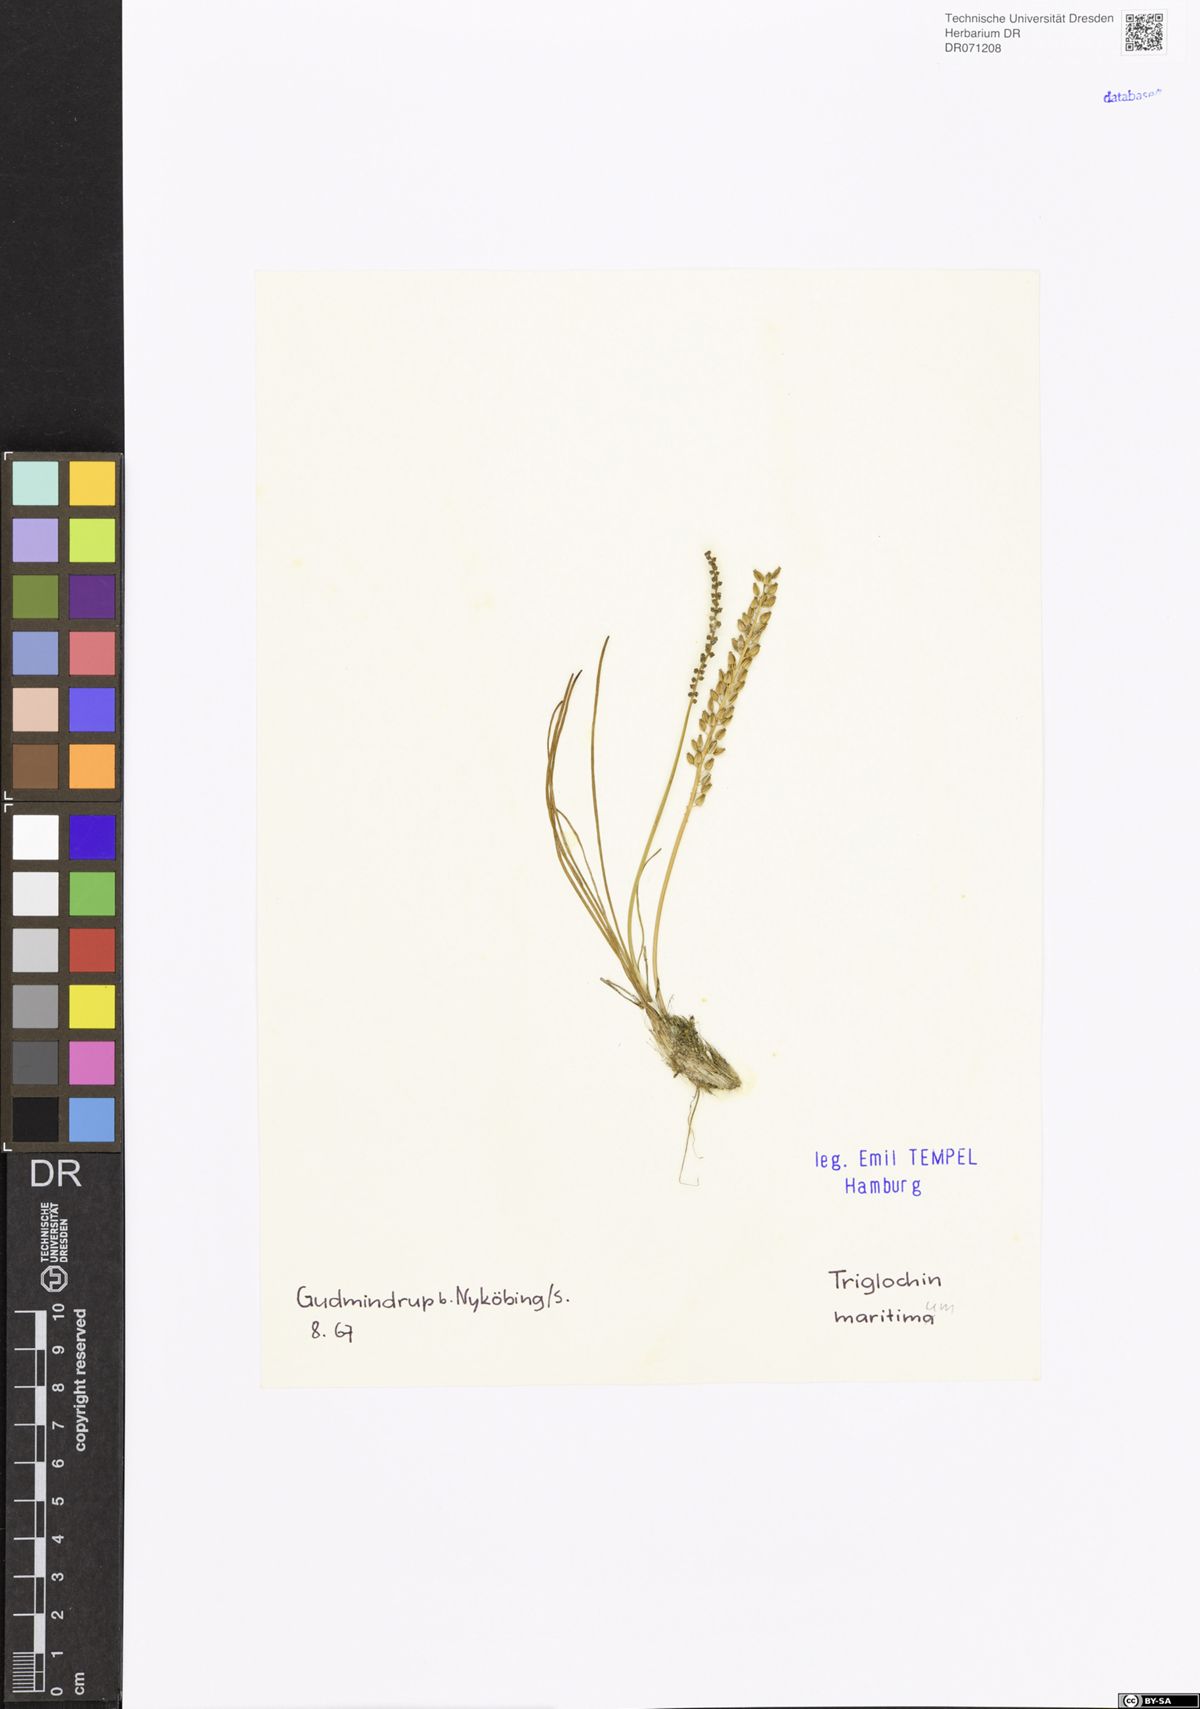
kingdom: Plantae
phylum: Tracheophyta
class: Liliopsida
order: Alismatales
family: Juncaginaceae
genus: Triglochin
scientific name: Triglochin maritima
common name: Sea arrowgrass
